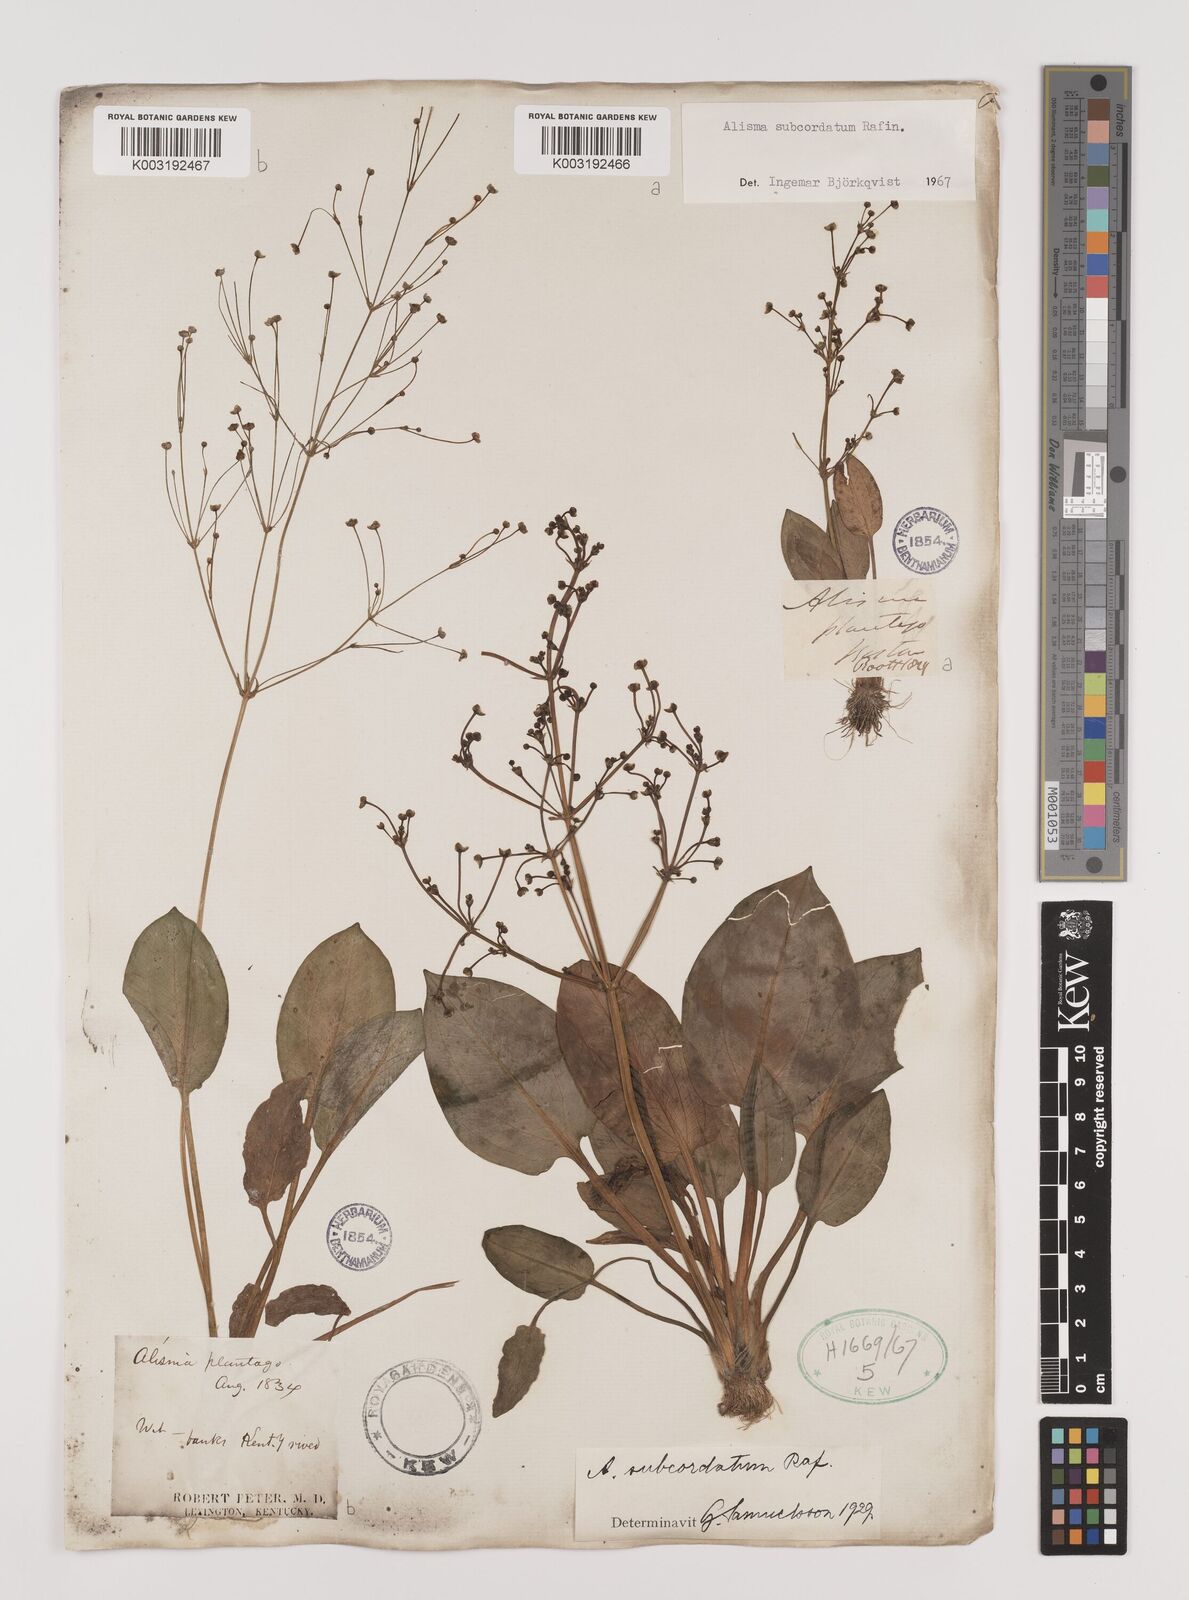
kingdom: Plantae
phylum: Tracheophyta
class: Liliopsida
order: Alismatales
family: Alismataceae
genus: Alisma
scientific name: Alisma subcordatum
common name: Southern water-plantain
